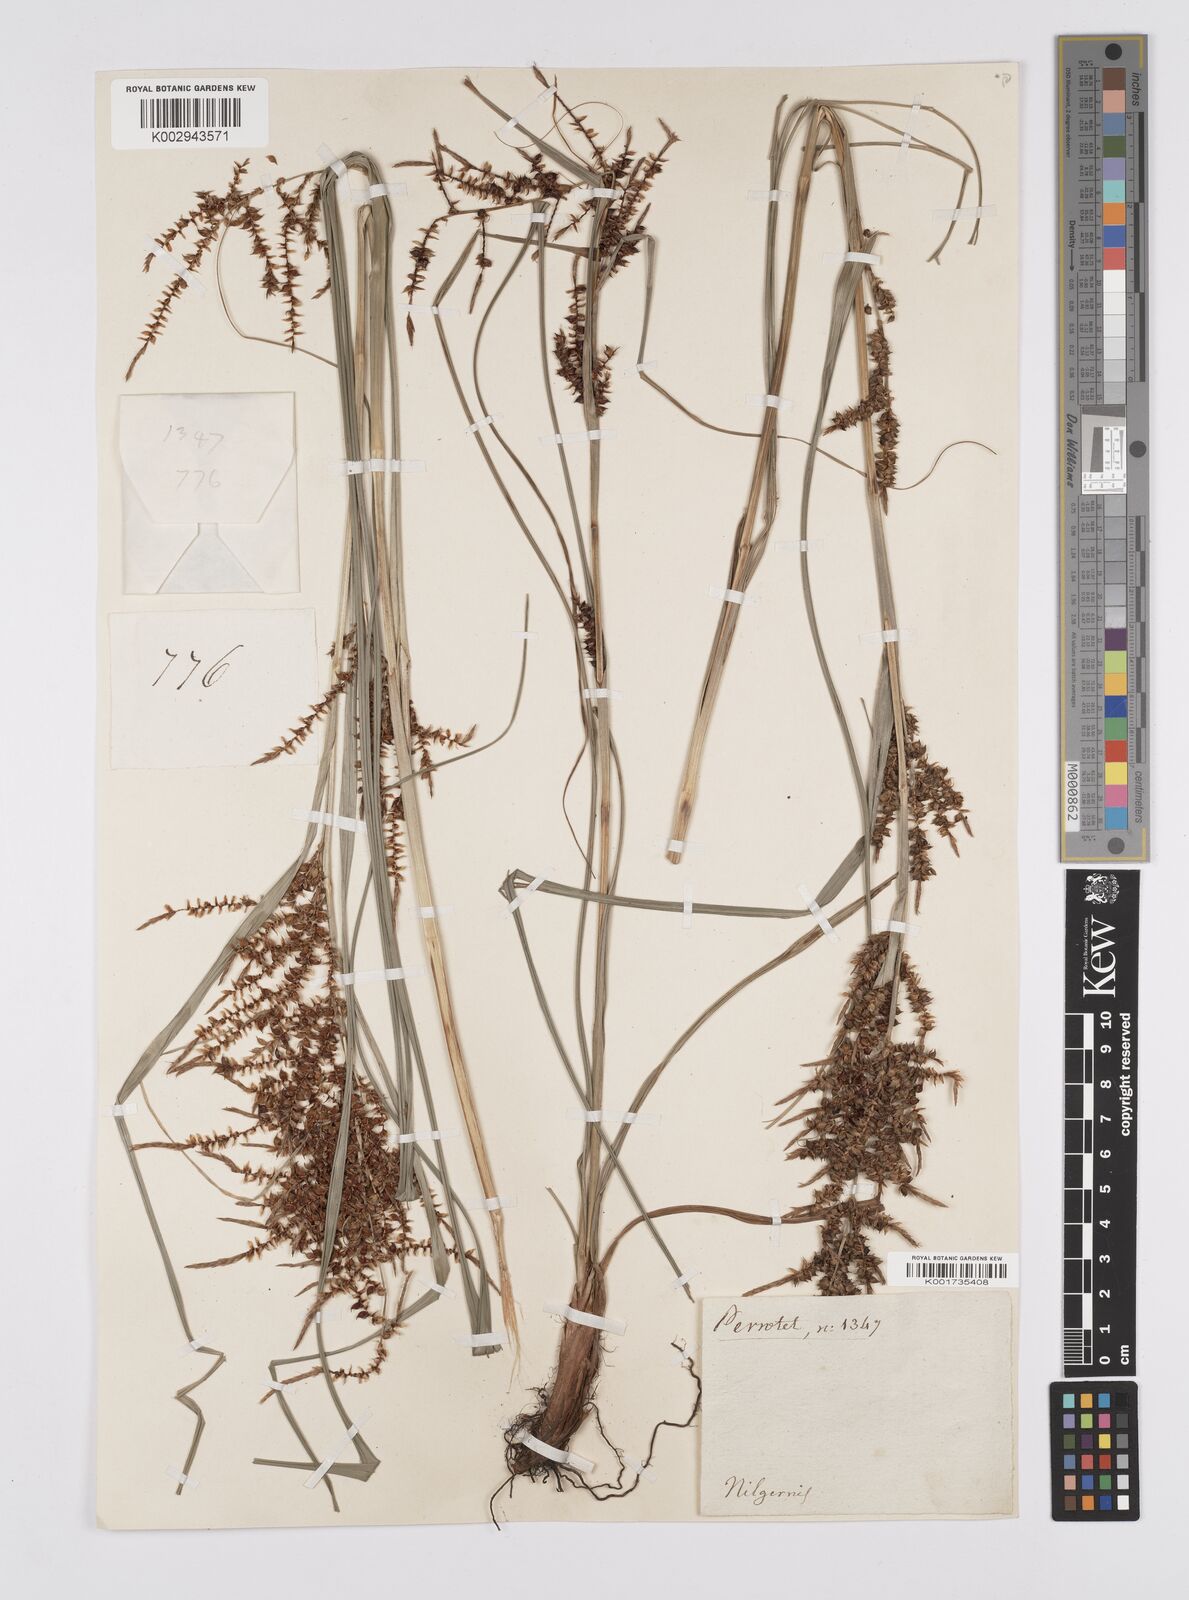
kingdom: Plantae
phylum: Tracheophyta
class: Liliopsida
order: Poales
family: Cyperaceae
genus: Carex
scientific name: Carex baccans
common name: Crimson seeded sedge
